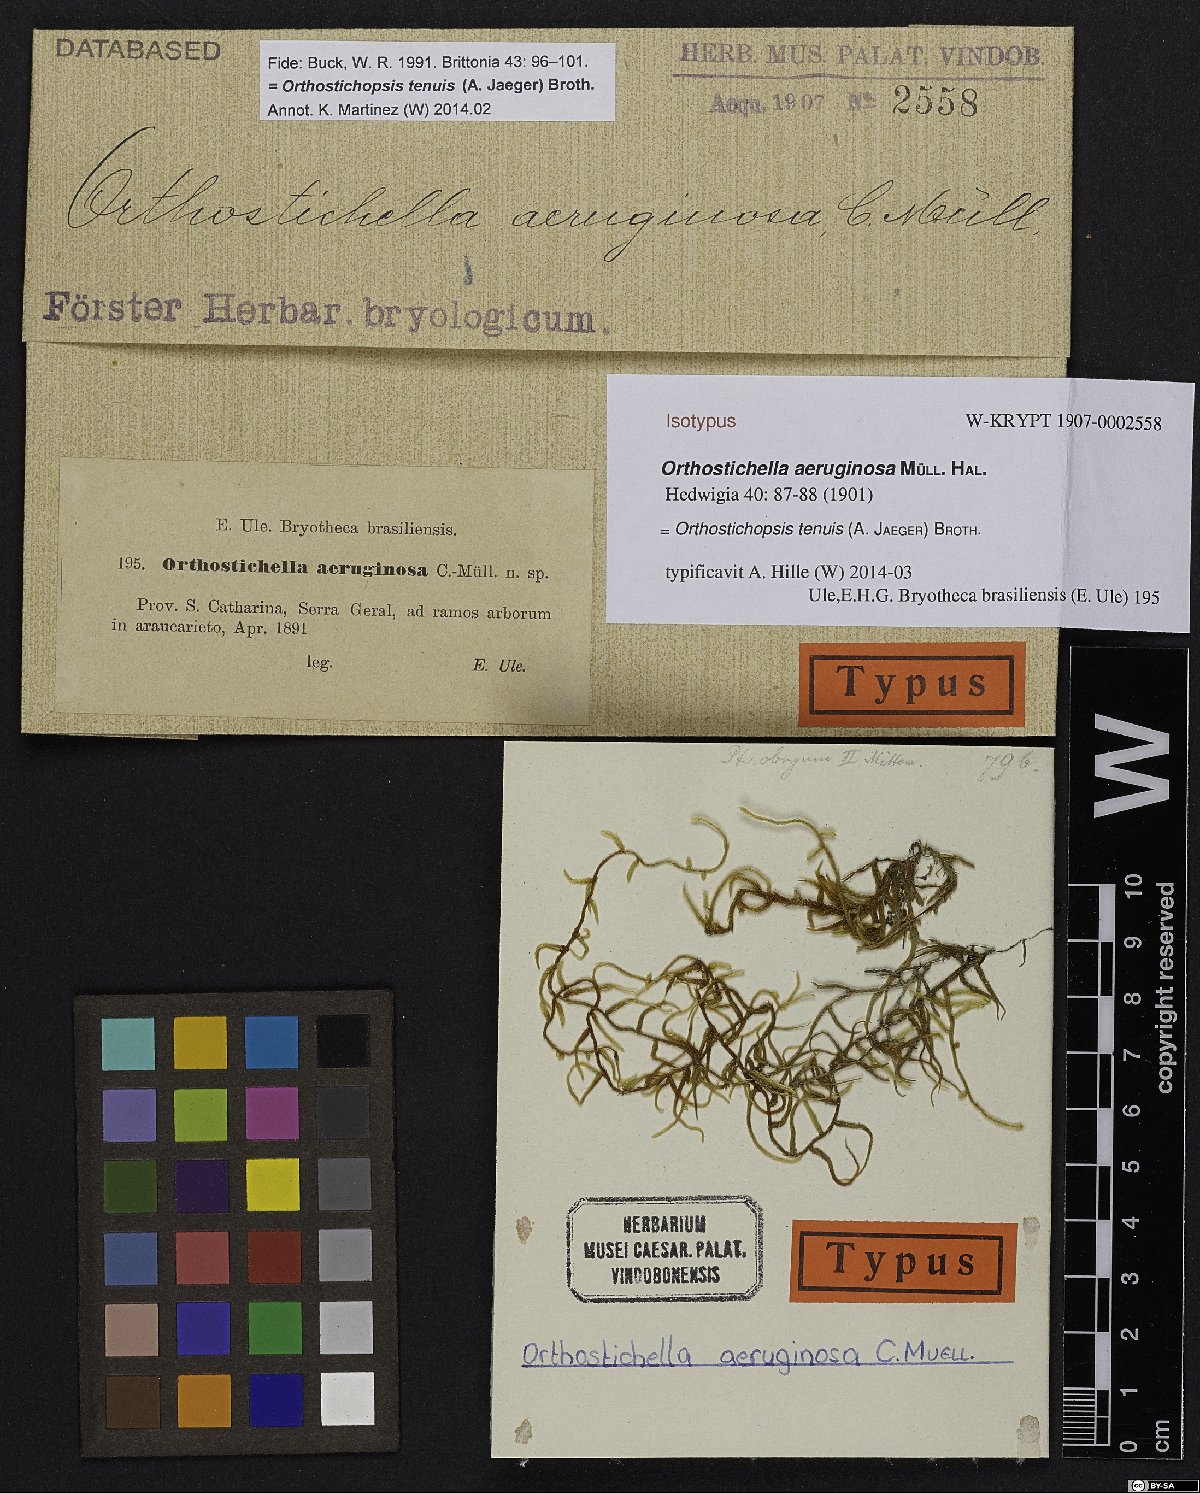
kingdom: Plantae
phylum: Bryophyta
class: Bryopsida
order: Hypnales
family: Pterobryaceae
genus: Orthostichopsis
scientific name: Orthostichopsis tenuis
